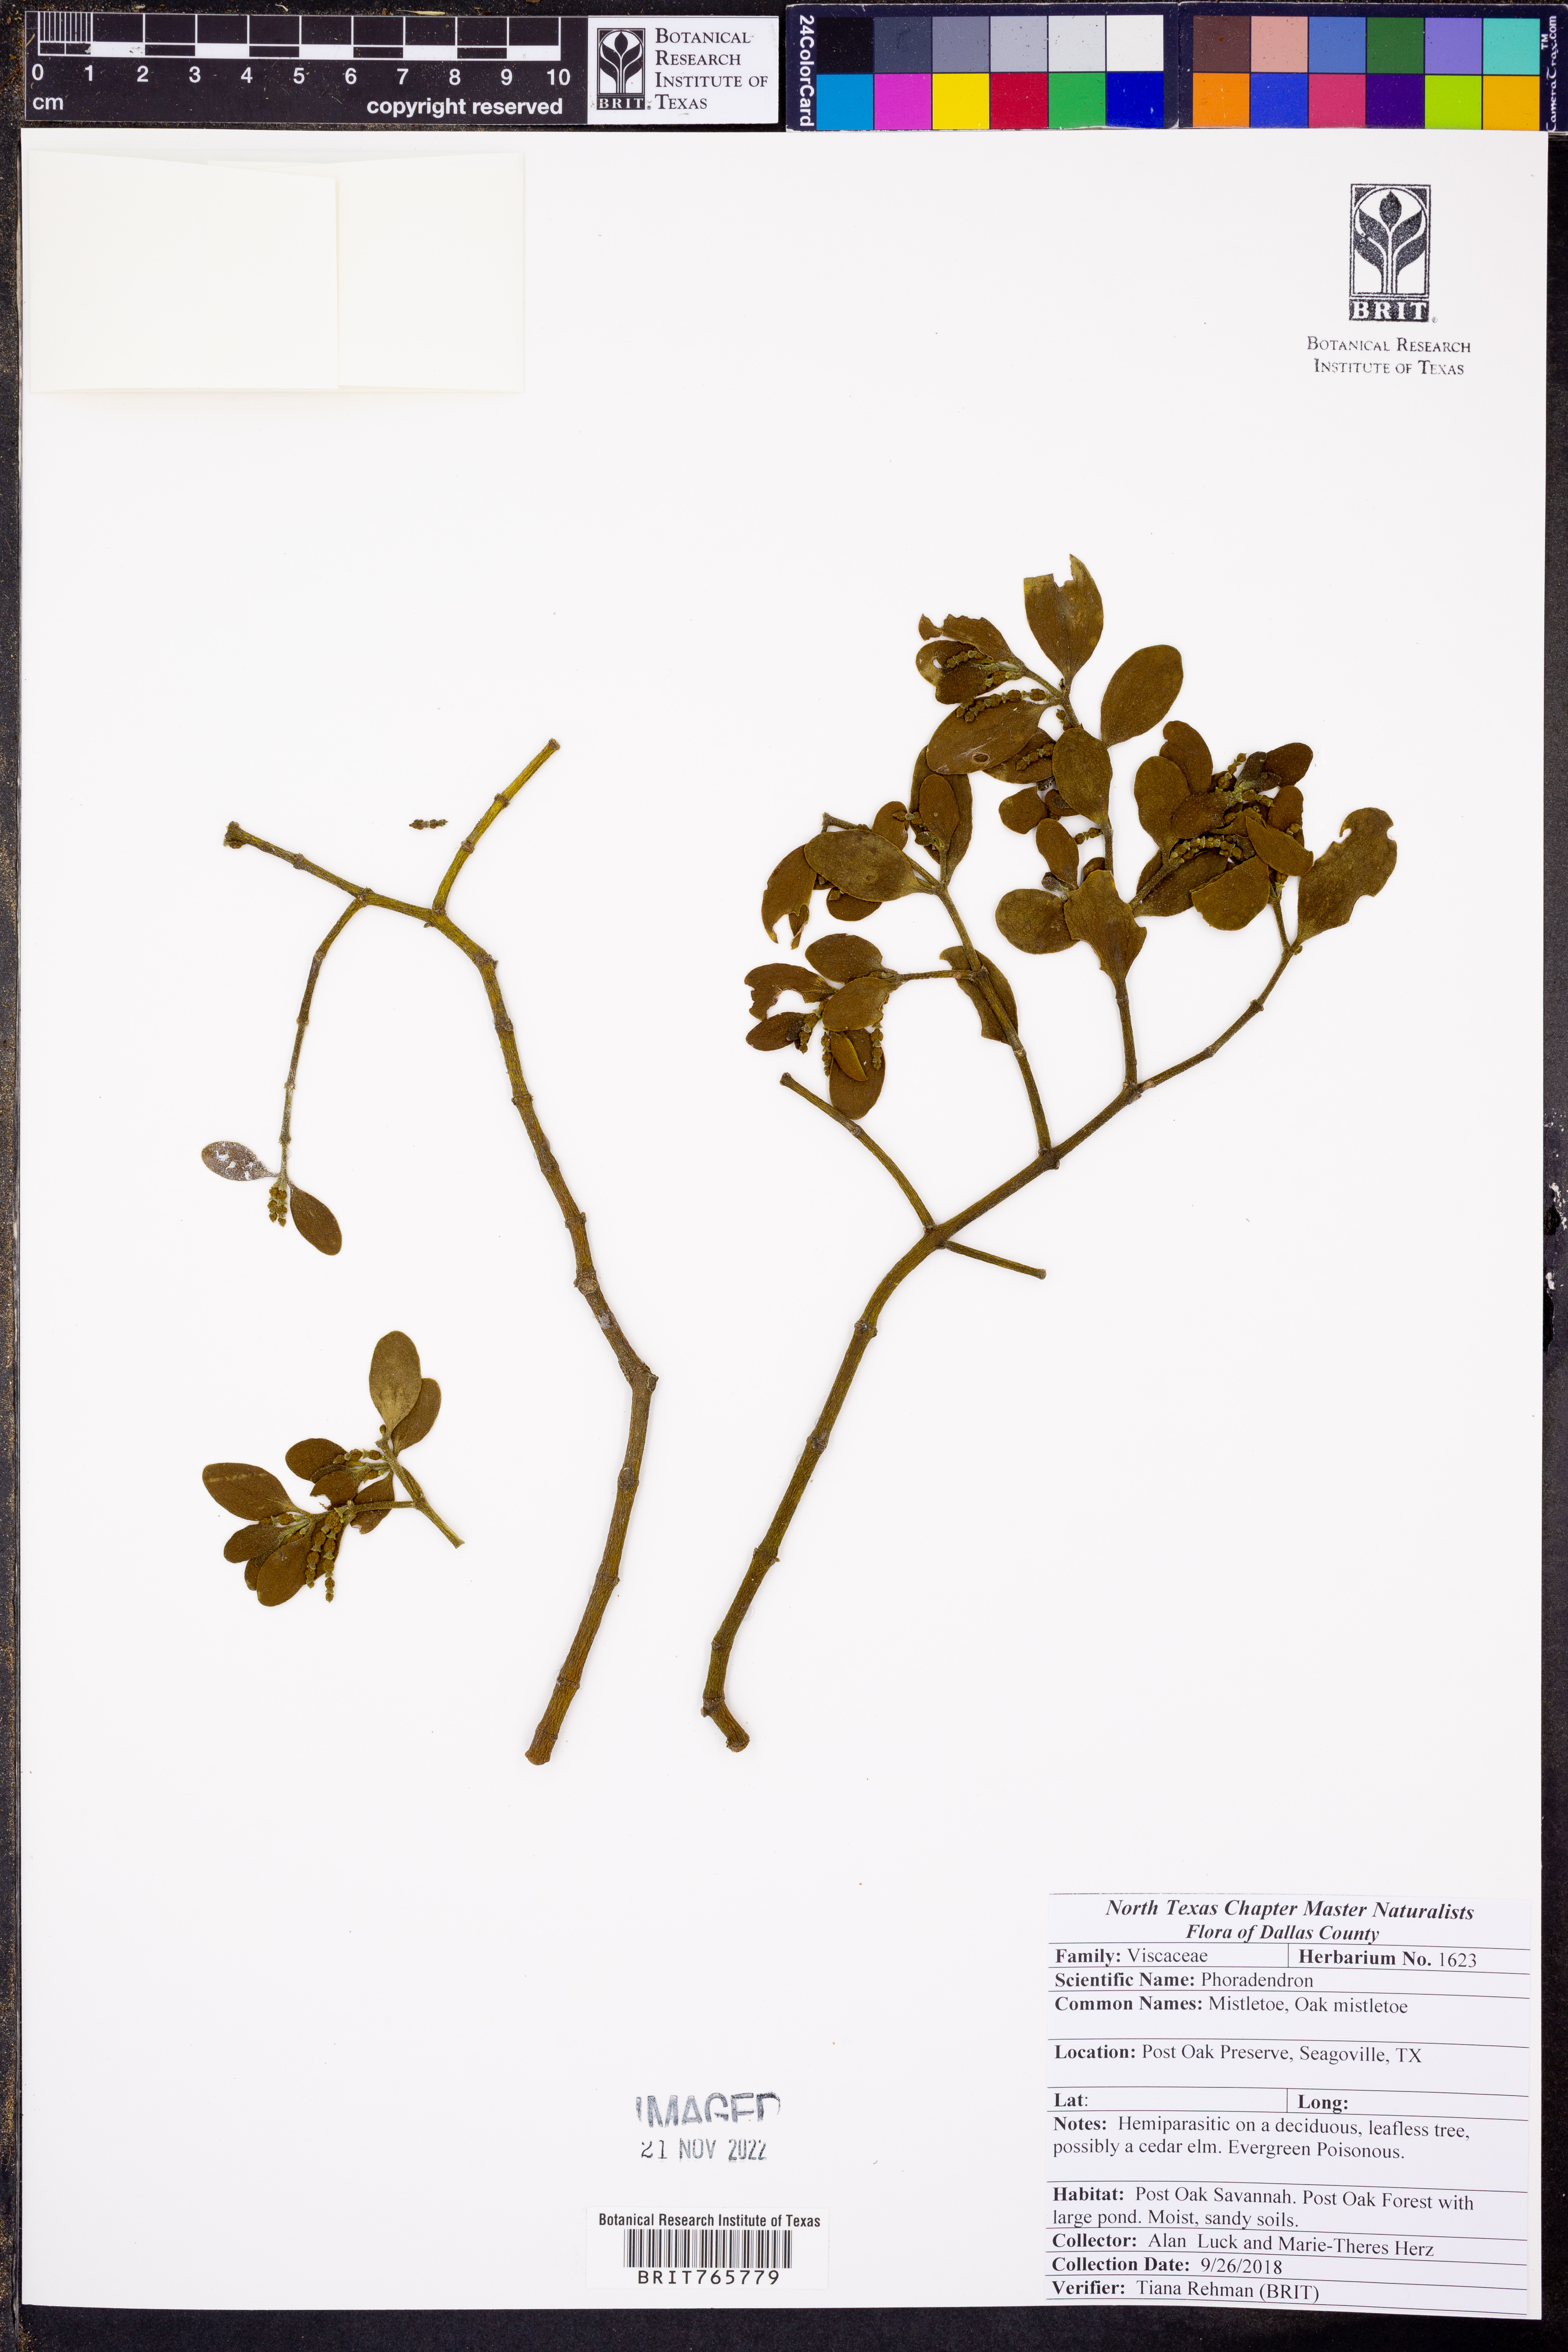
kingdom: Plantae
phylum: Tracheophyta
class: Magnoliopsida
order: Santalales
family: Viscaceae
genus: Phoradendron
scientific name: Phoradendron
